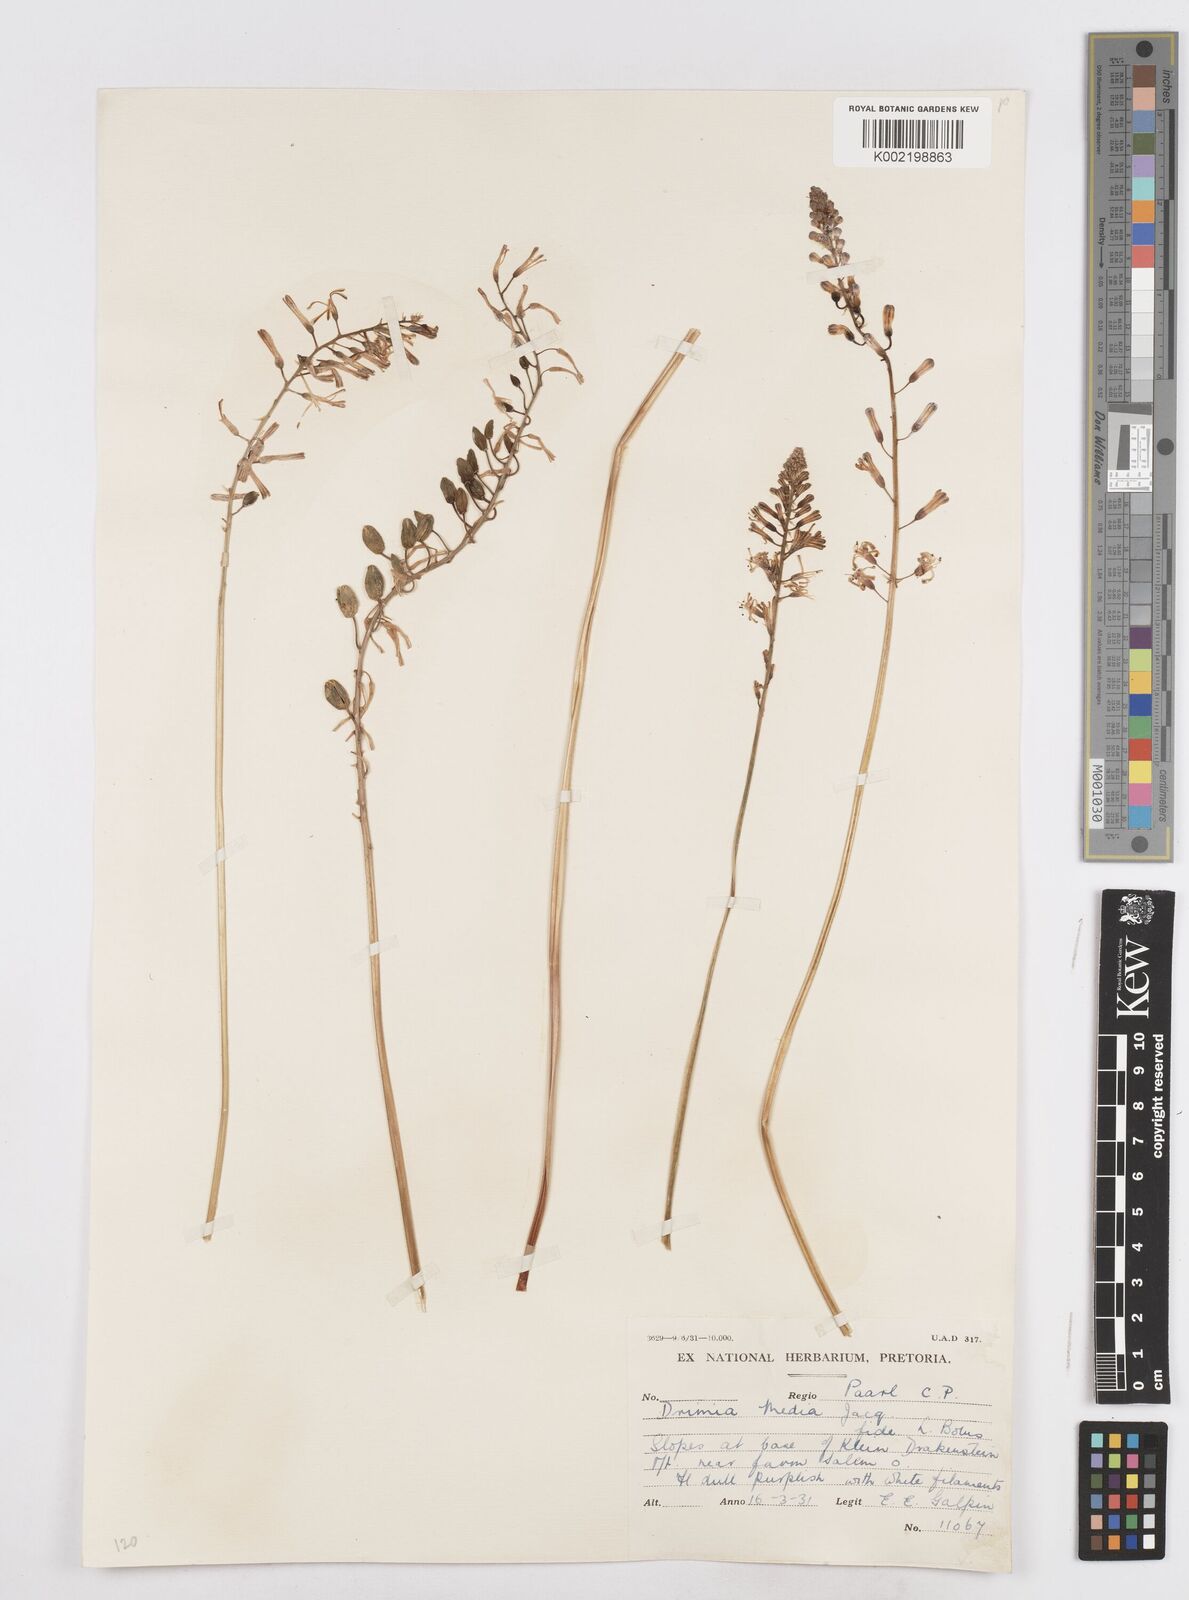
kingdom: Plantae
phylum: Tracheophyta
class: Liliopsida
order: Asparagales
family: Asparagaceae
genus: Drimia
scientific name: Drimia media
